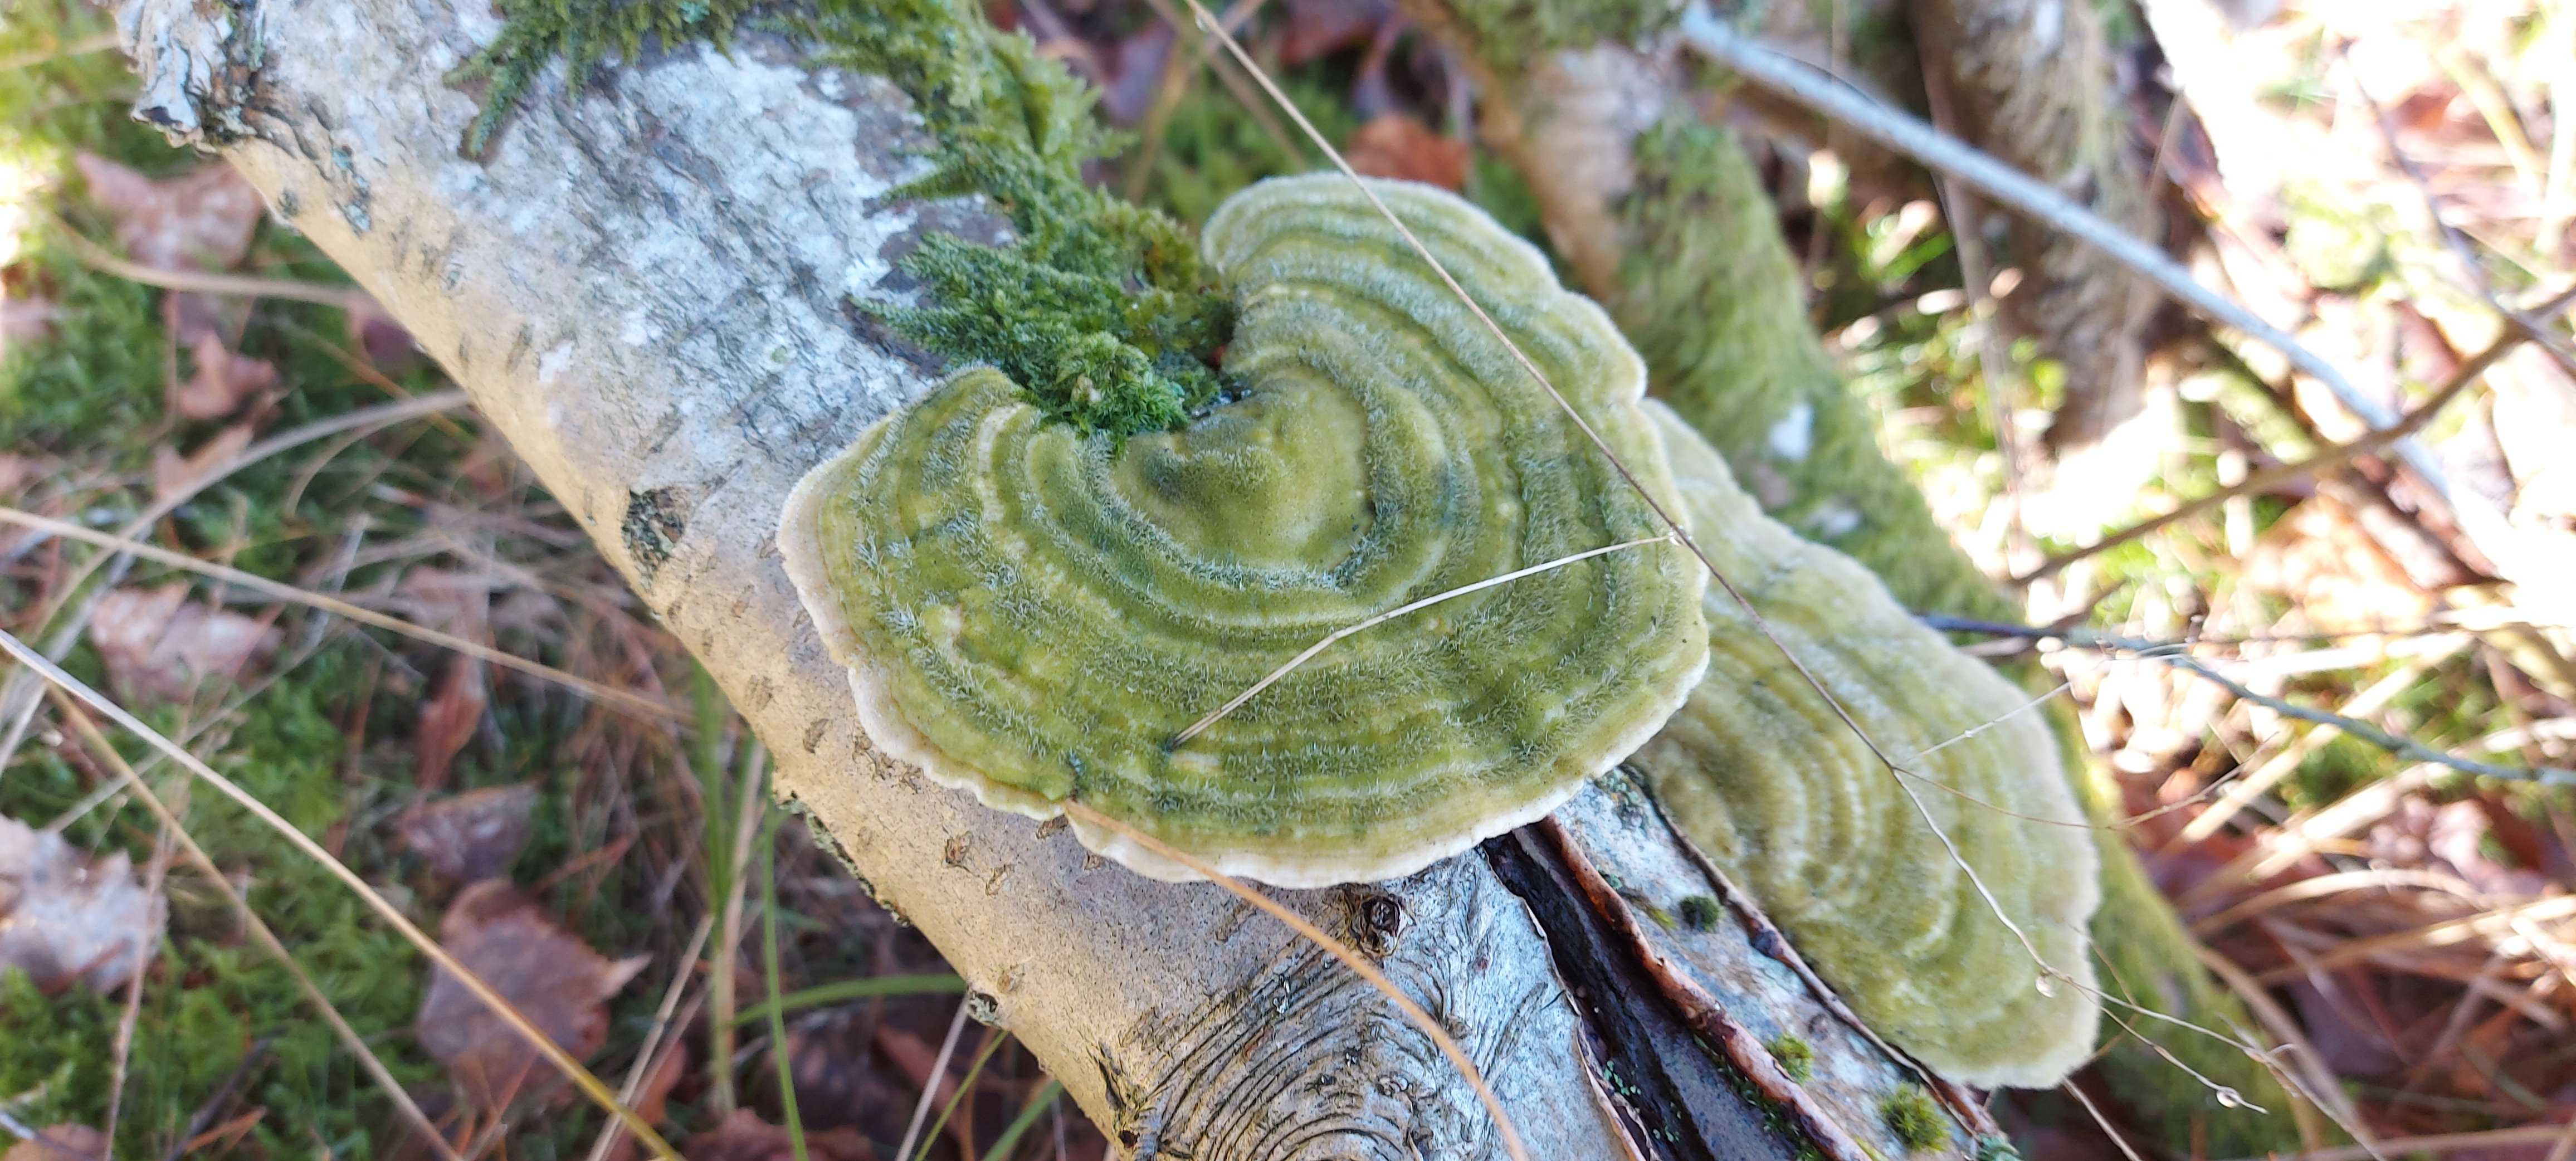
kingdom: Fungi
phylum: Basidiomycota
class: Agaricomycetes
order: Polyporales
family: Polyporaceae
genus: Trametes
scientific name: Trametes hirsuta
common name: håret læderporesvamp
